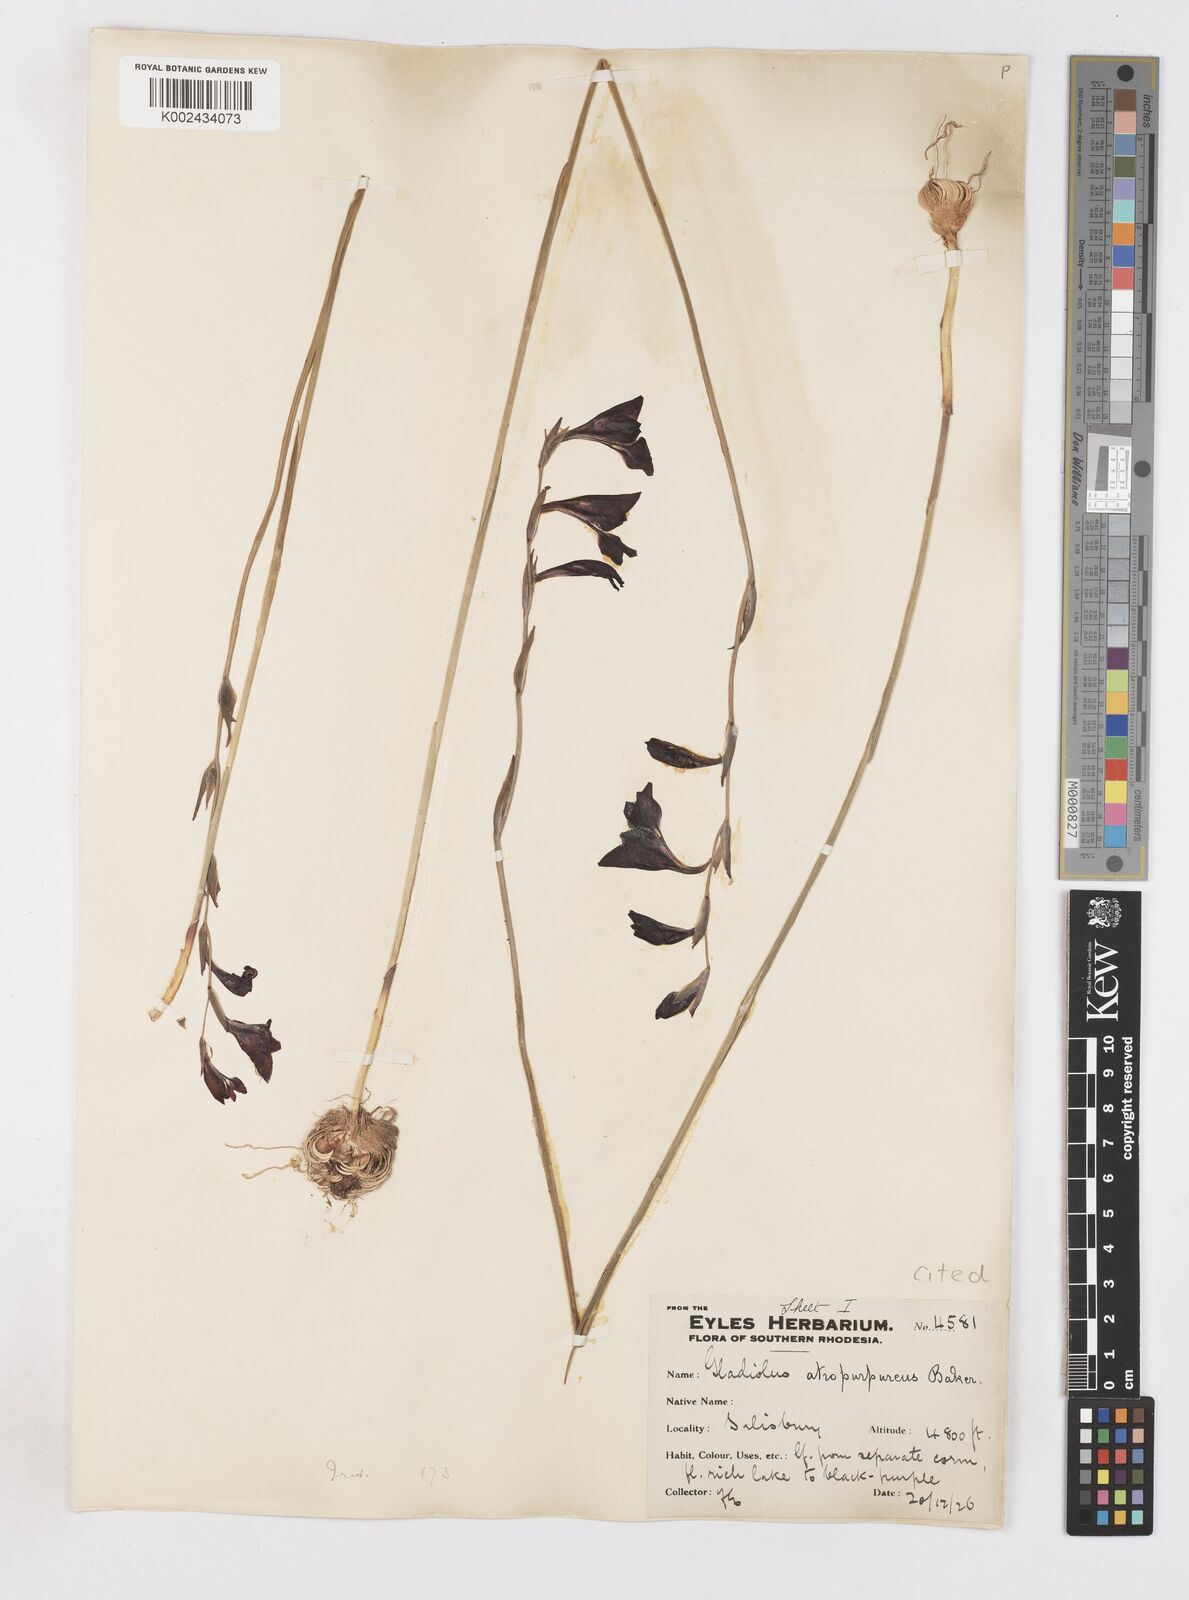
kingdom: Plantae
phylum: Tracheophyta
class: Liliopsida
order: Asparagales
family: Iridaceae
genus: Gladiolus
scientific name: Gladiolus atropurpureus
